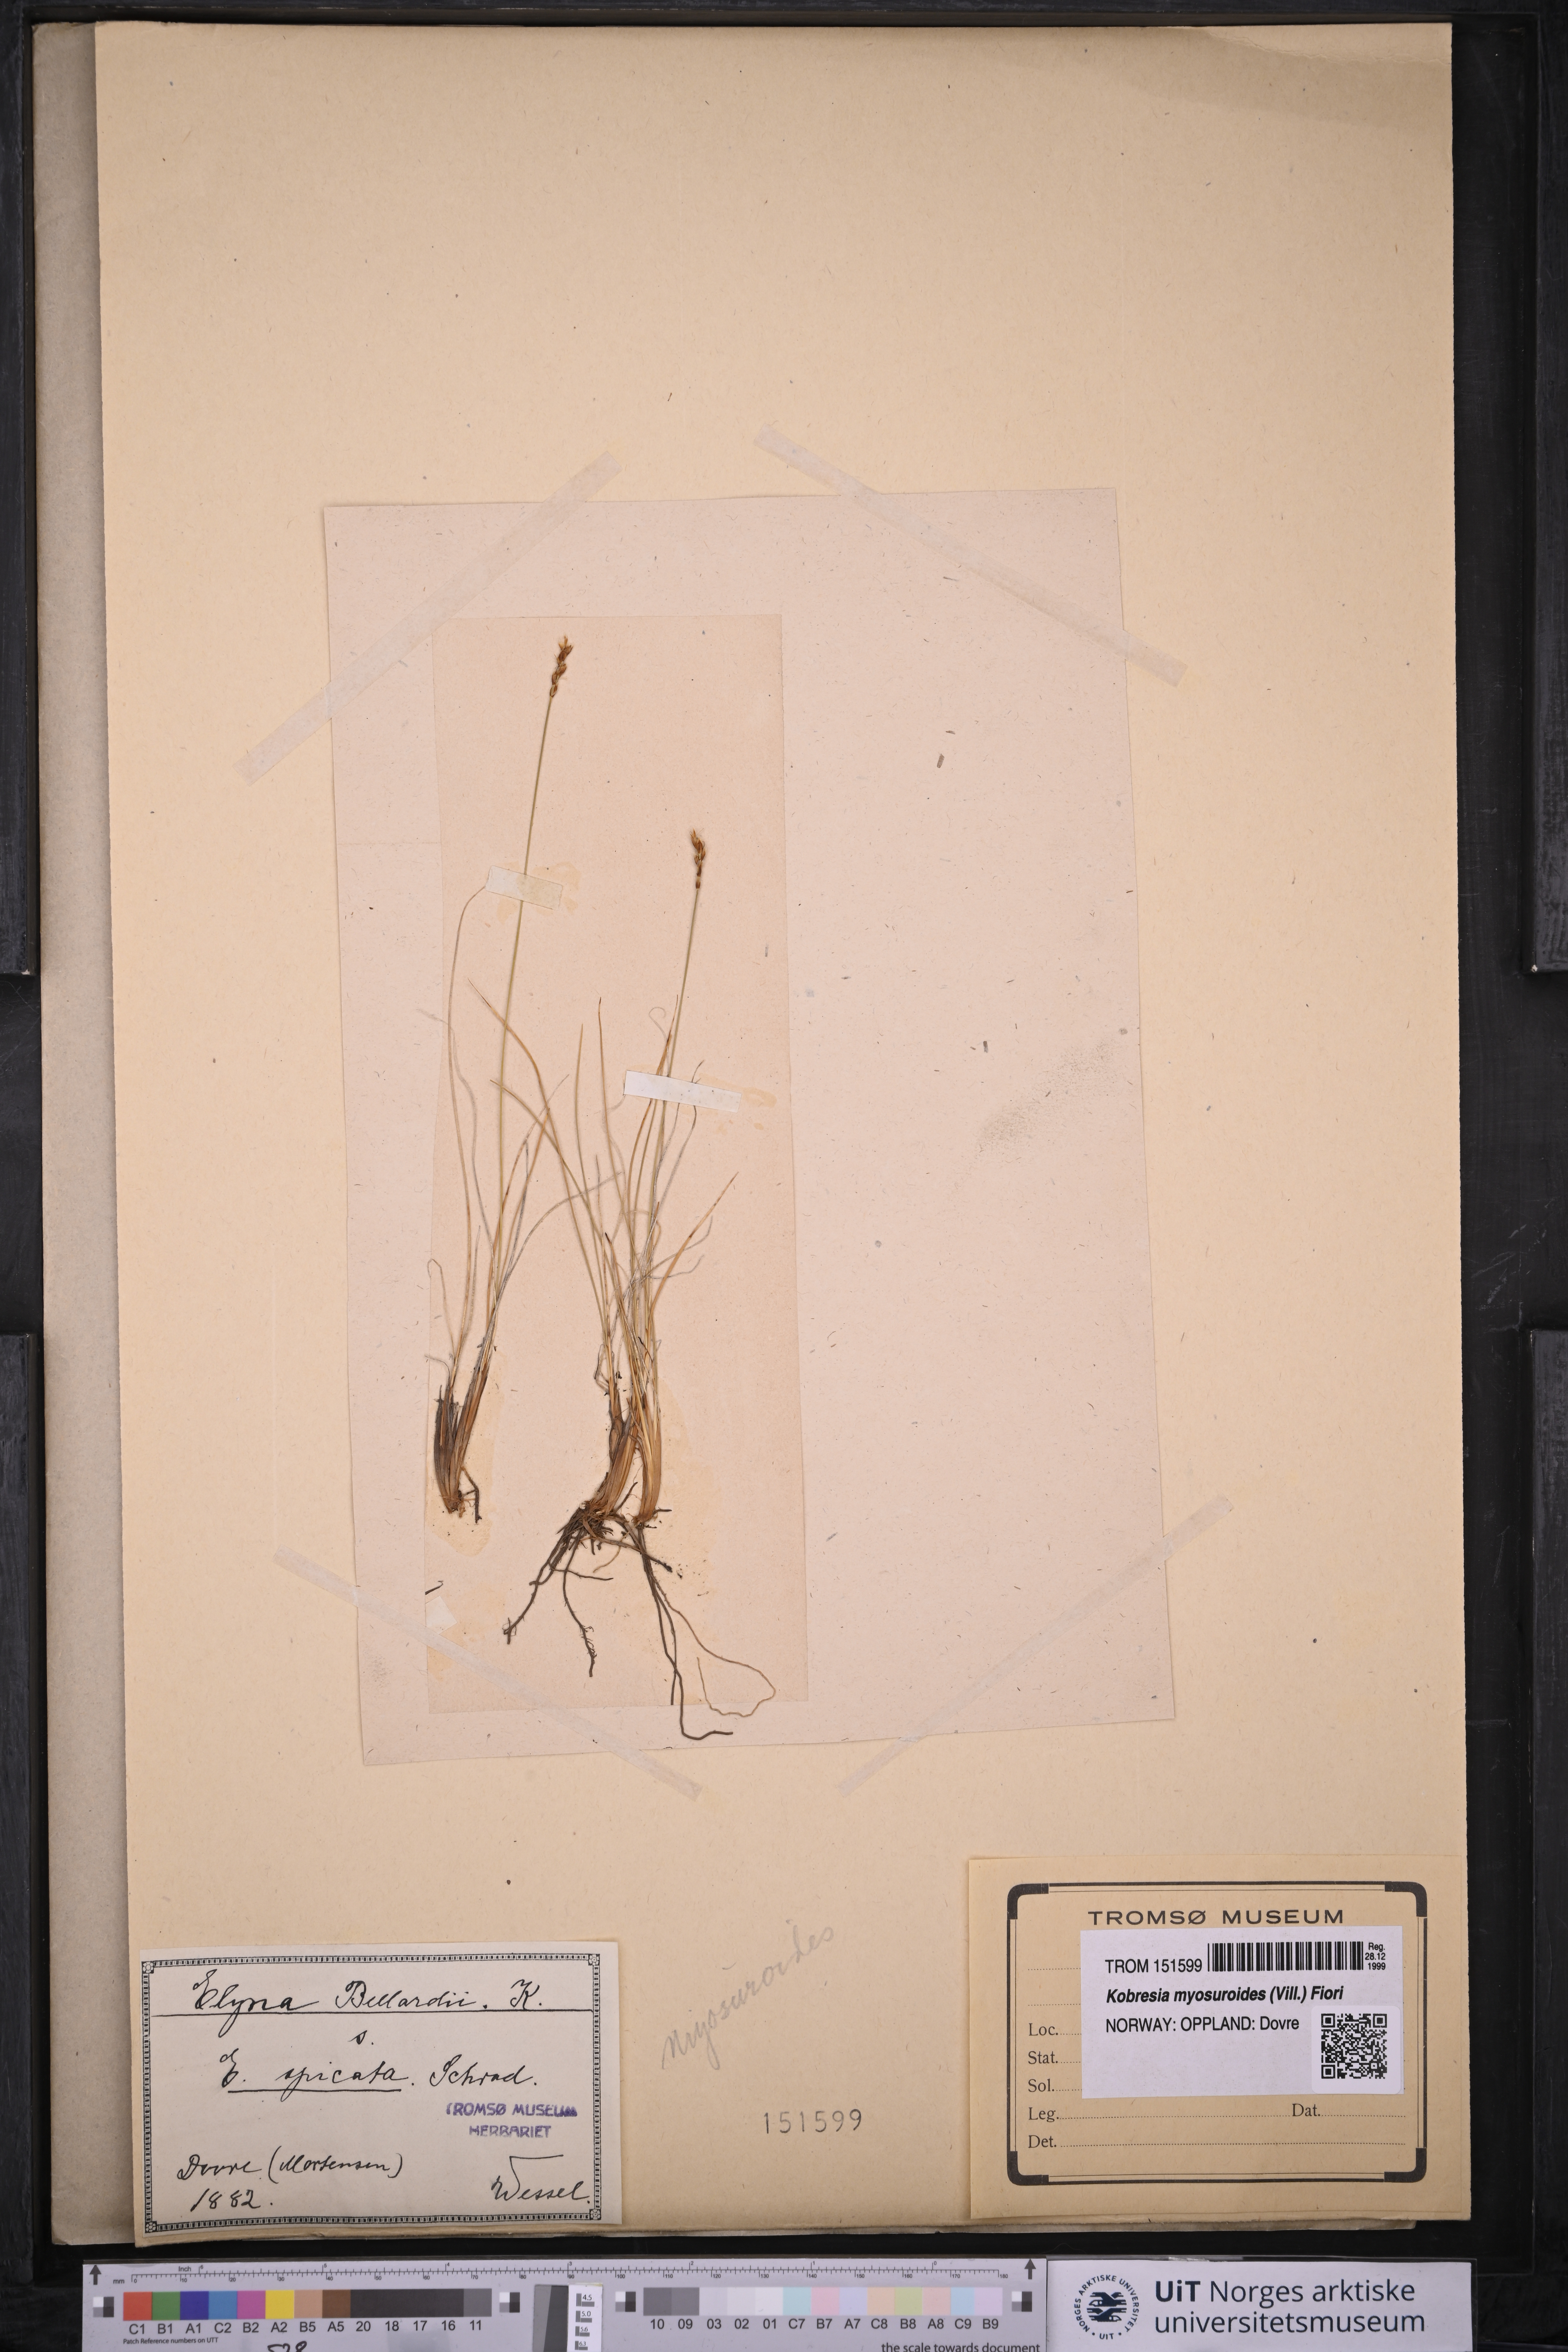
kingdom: Plantae
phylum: Tracheophyta
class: Liliopsida
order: Poales
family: Cyperaceae
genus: Carex
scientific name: Carex myosuroides
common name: Bellard's bog sedge
